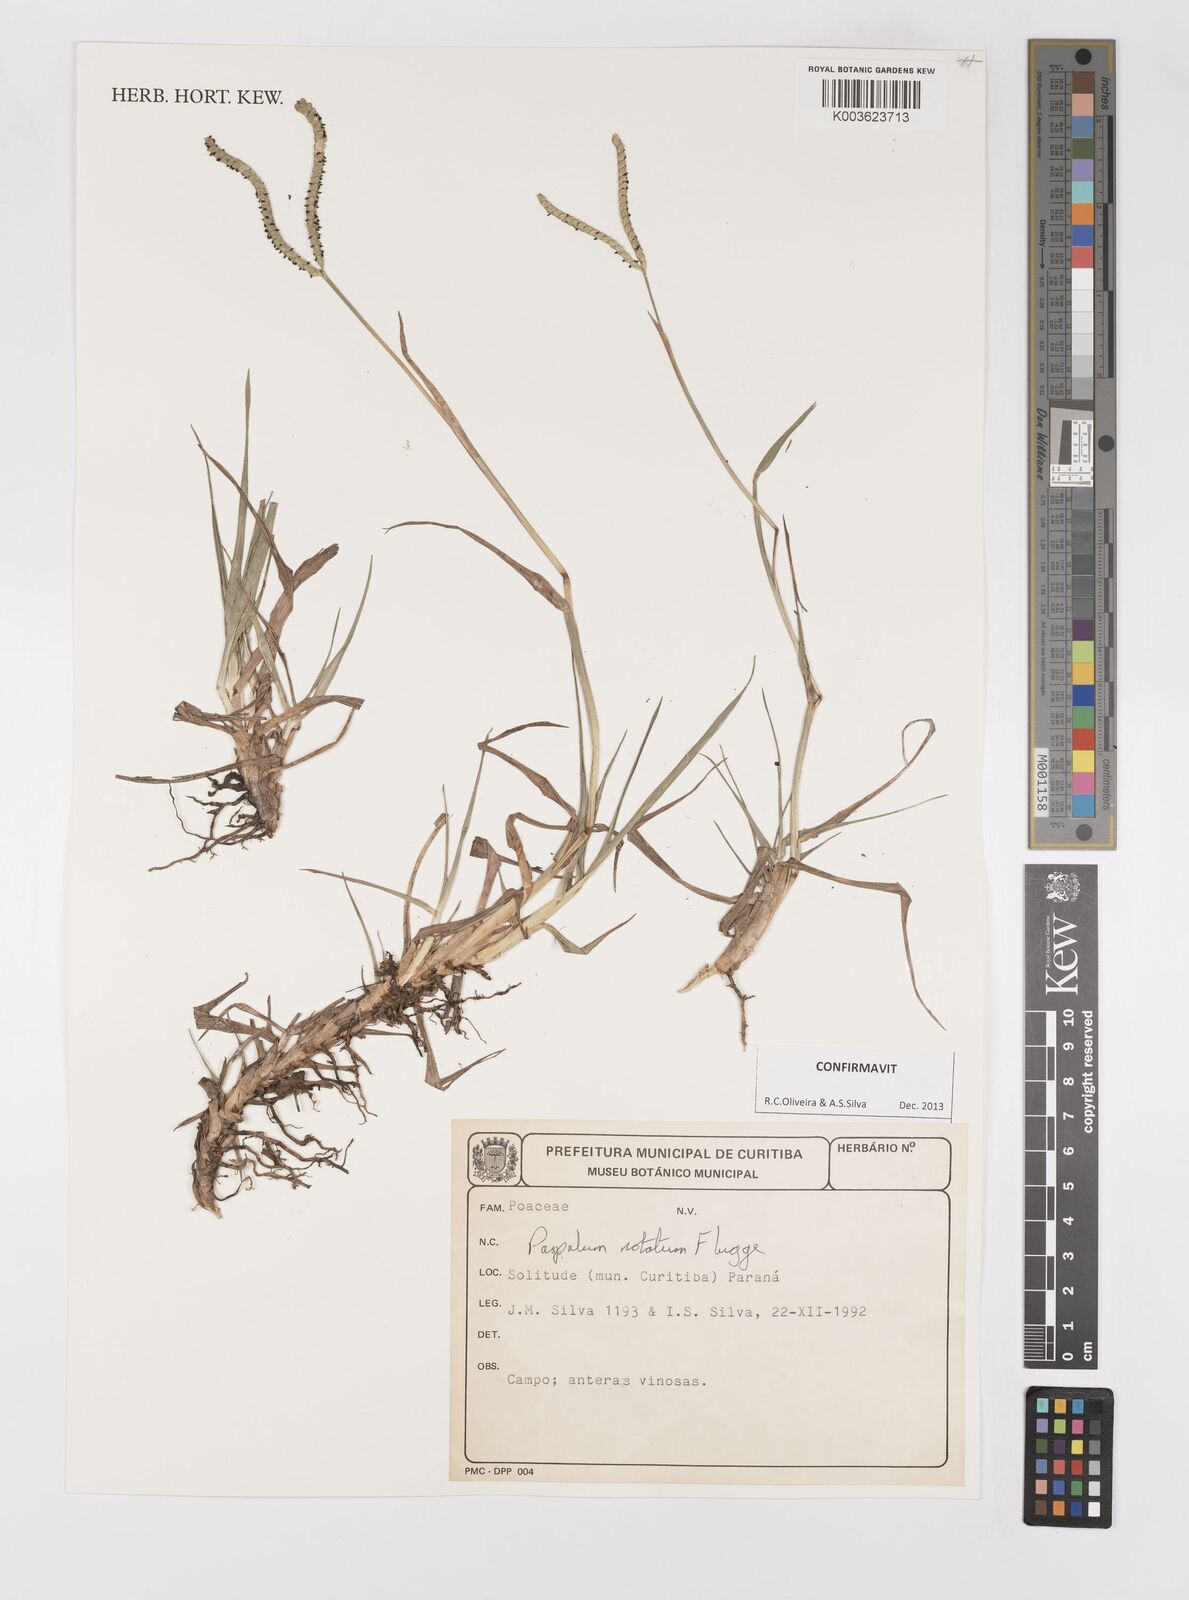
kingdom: Plantae
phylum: Tracheophyta
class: Liliopsida
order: Poales
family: Poaceae
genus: Paspalum
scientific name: Paspalum notatum
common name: Bahiagrass
